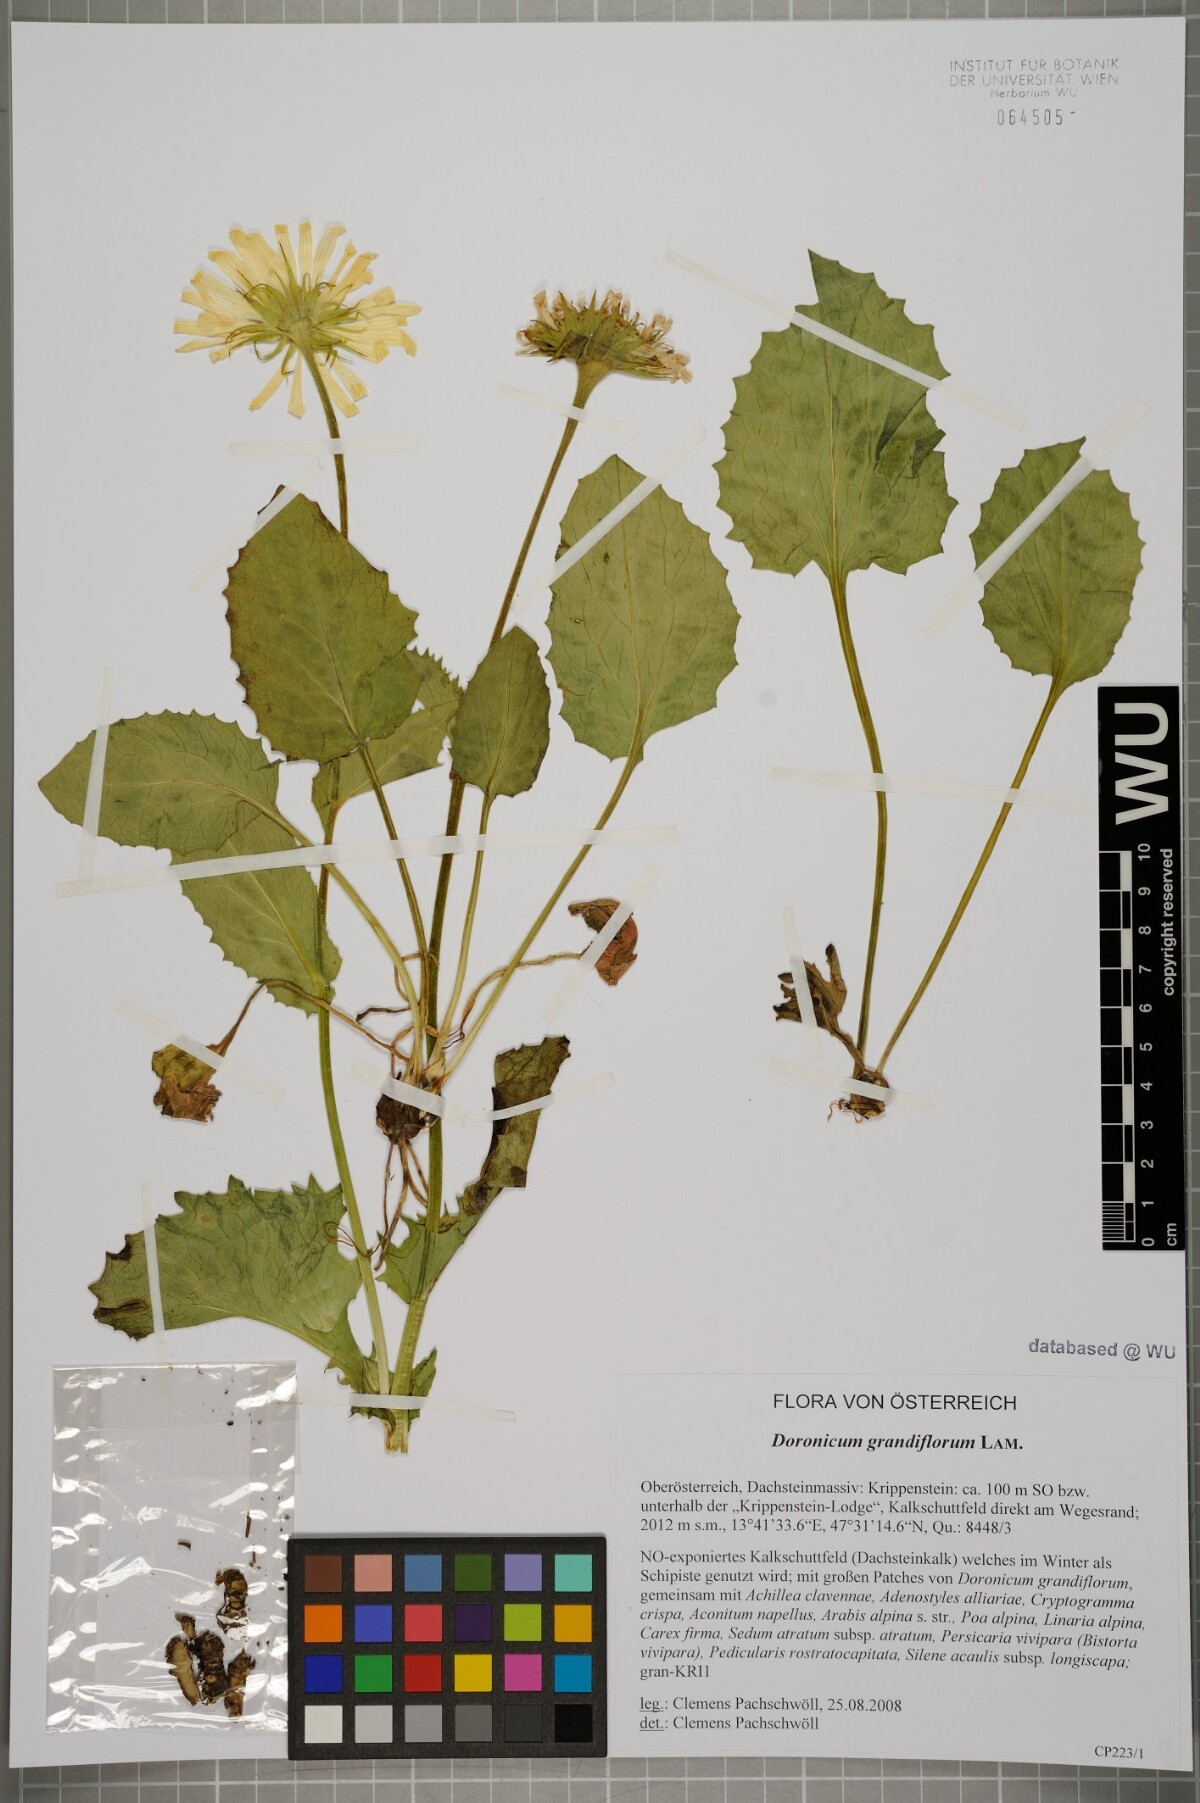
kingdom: Plantae
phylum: Tracheophyta
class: Magnoliopsida
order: Asterales
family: Asteraceae
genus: Doronicum
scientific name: Doronicum grandiflorum
